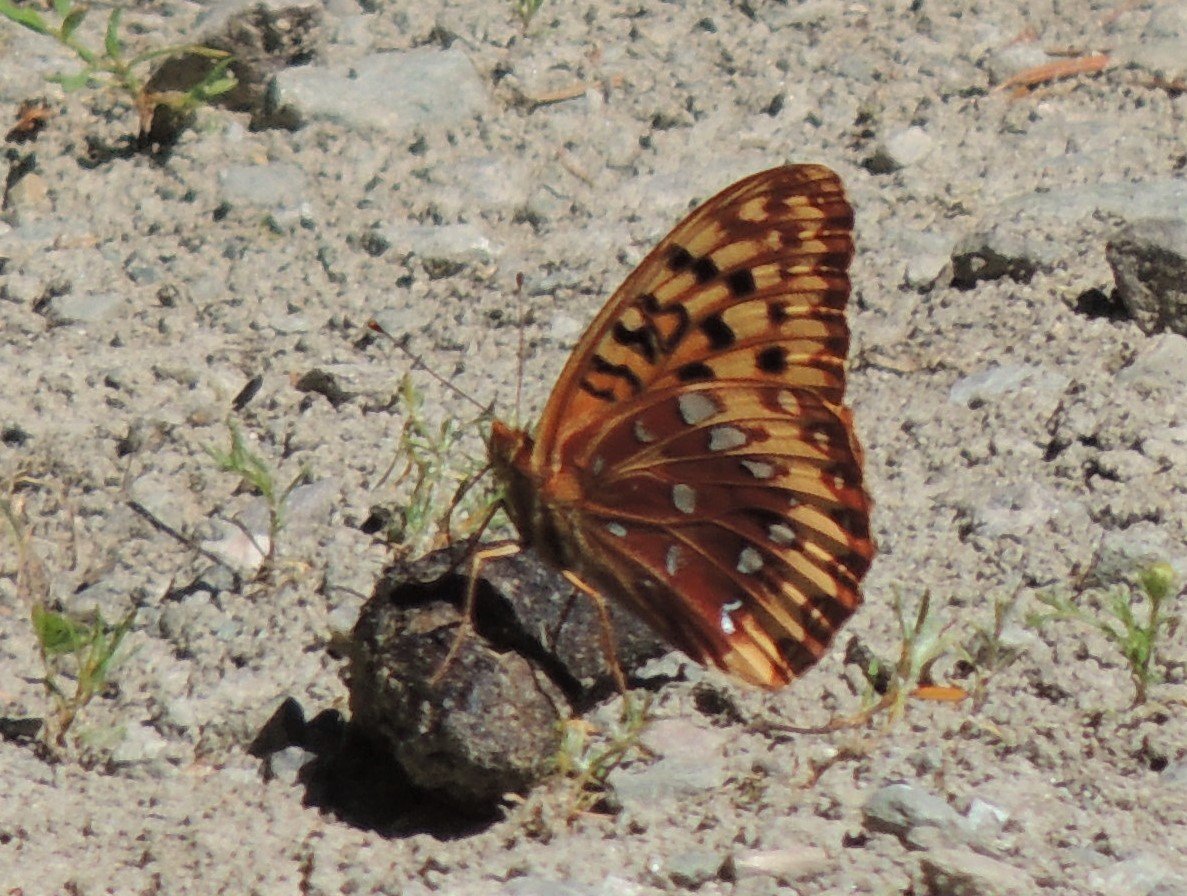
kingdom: Animalia
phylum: Arthropoda
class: Insecta
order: Lepidoptera
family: Nymphalidae
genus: Speyeria
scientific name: Speyeria cybele
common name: Great Spangled Fritillary
